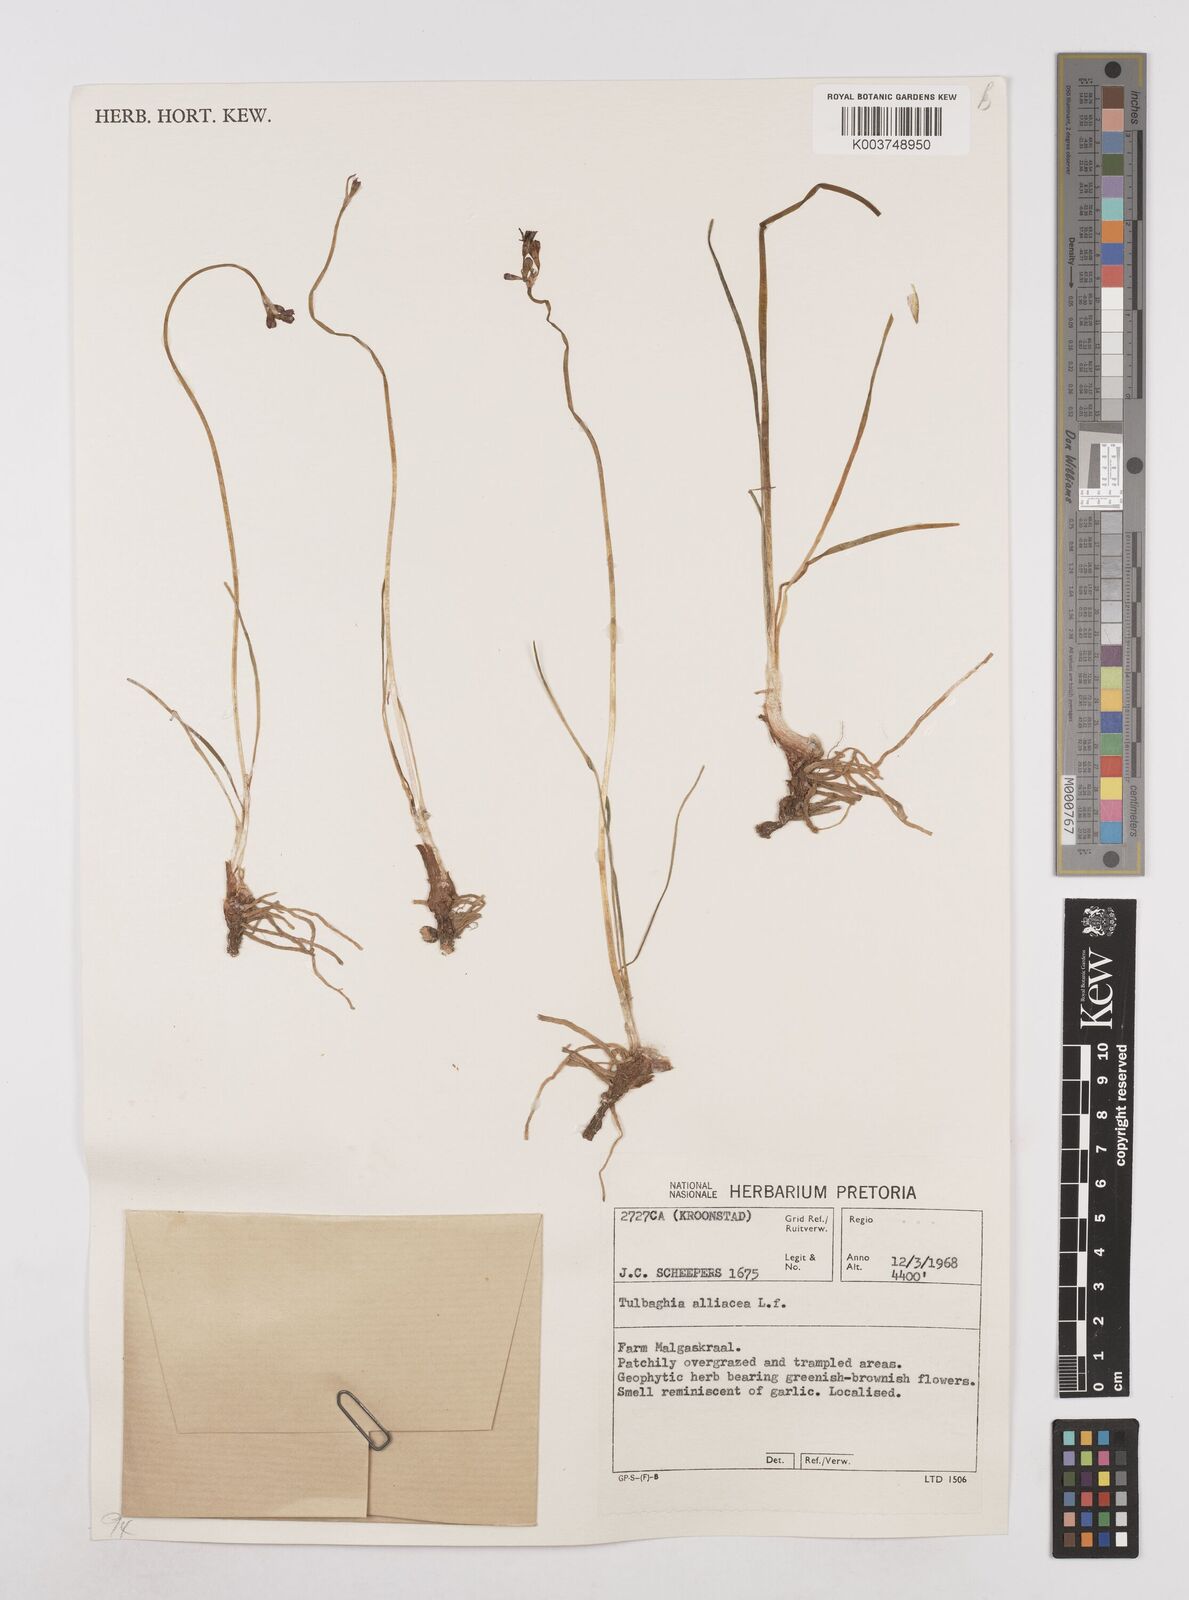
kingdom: Plantae
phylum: Tracheophyta
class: Liliopsida
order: Asparagales
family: Amaryllidaceae
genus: Tulbaghia
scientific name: Tulbaghia alliacea
